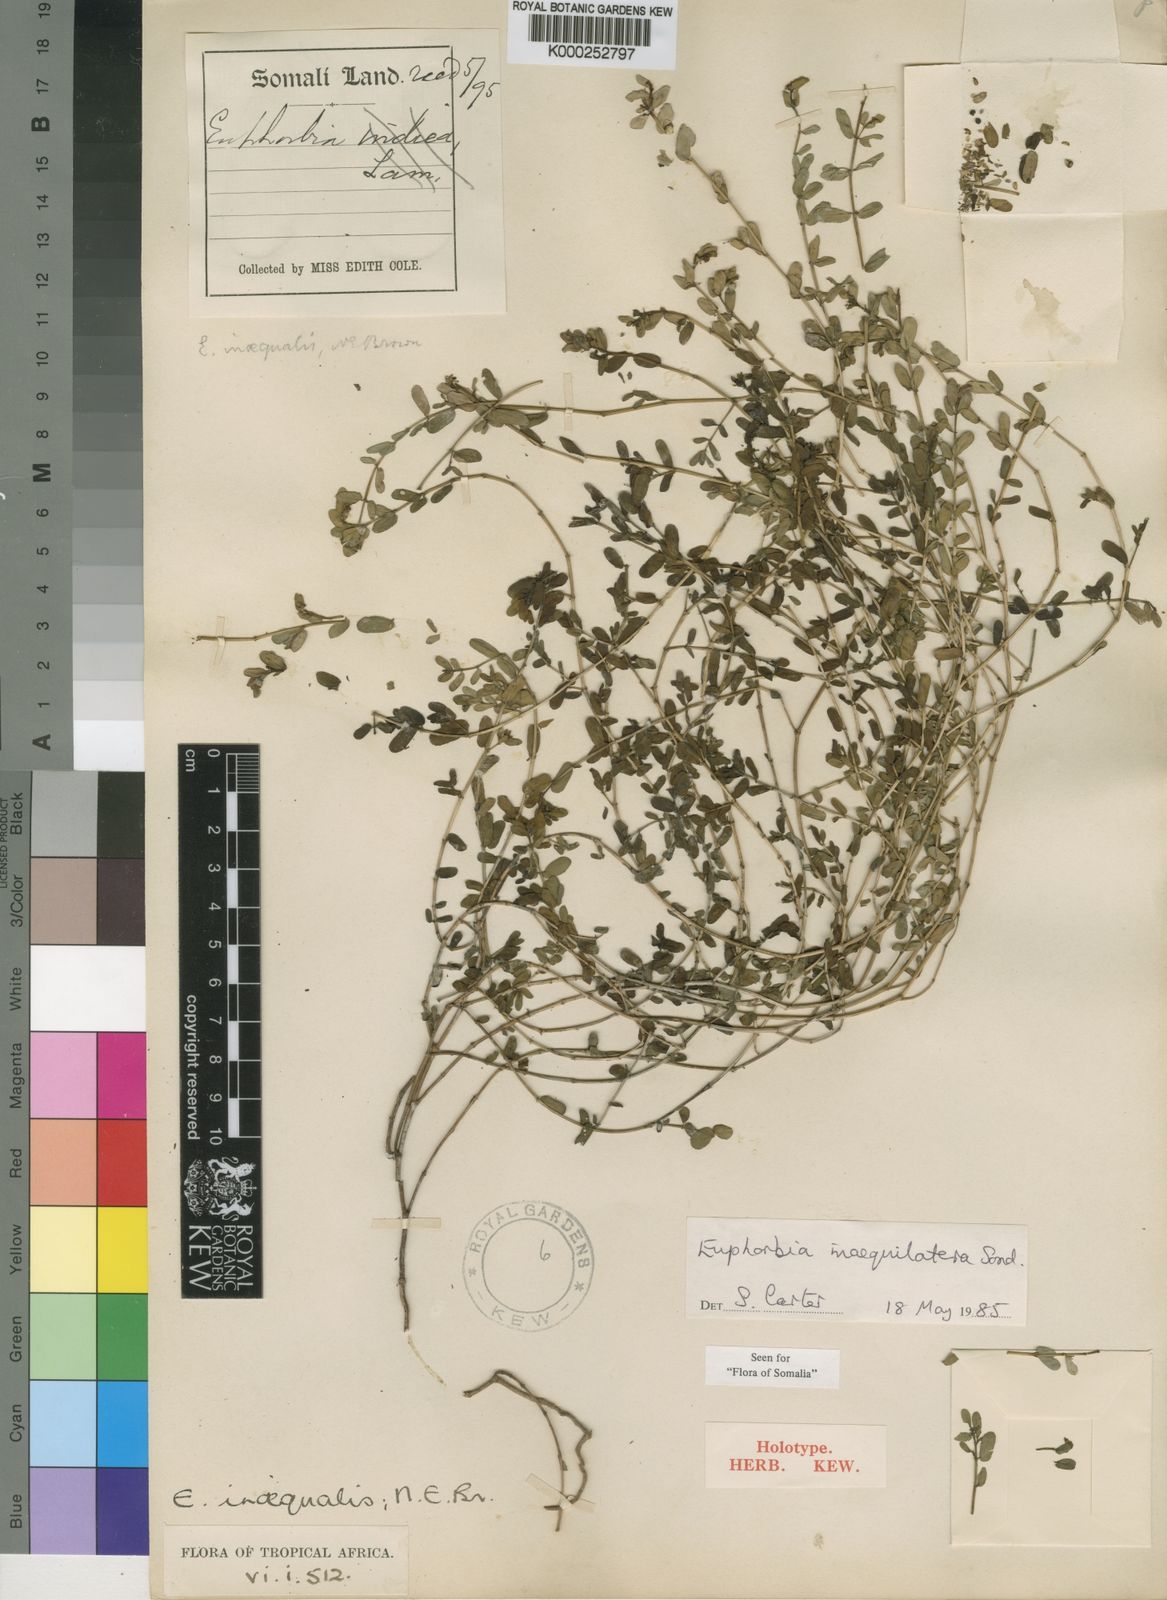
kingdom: Plantae
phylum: Tracheophyta
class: Magnoliopsida
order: Malpighiales
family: Euphorbiaceae
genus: Euphorbia
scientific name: Euphorbia inaequilatera
